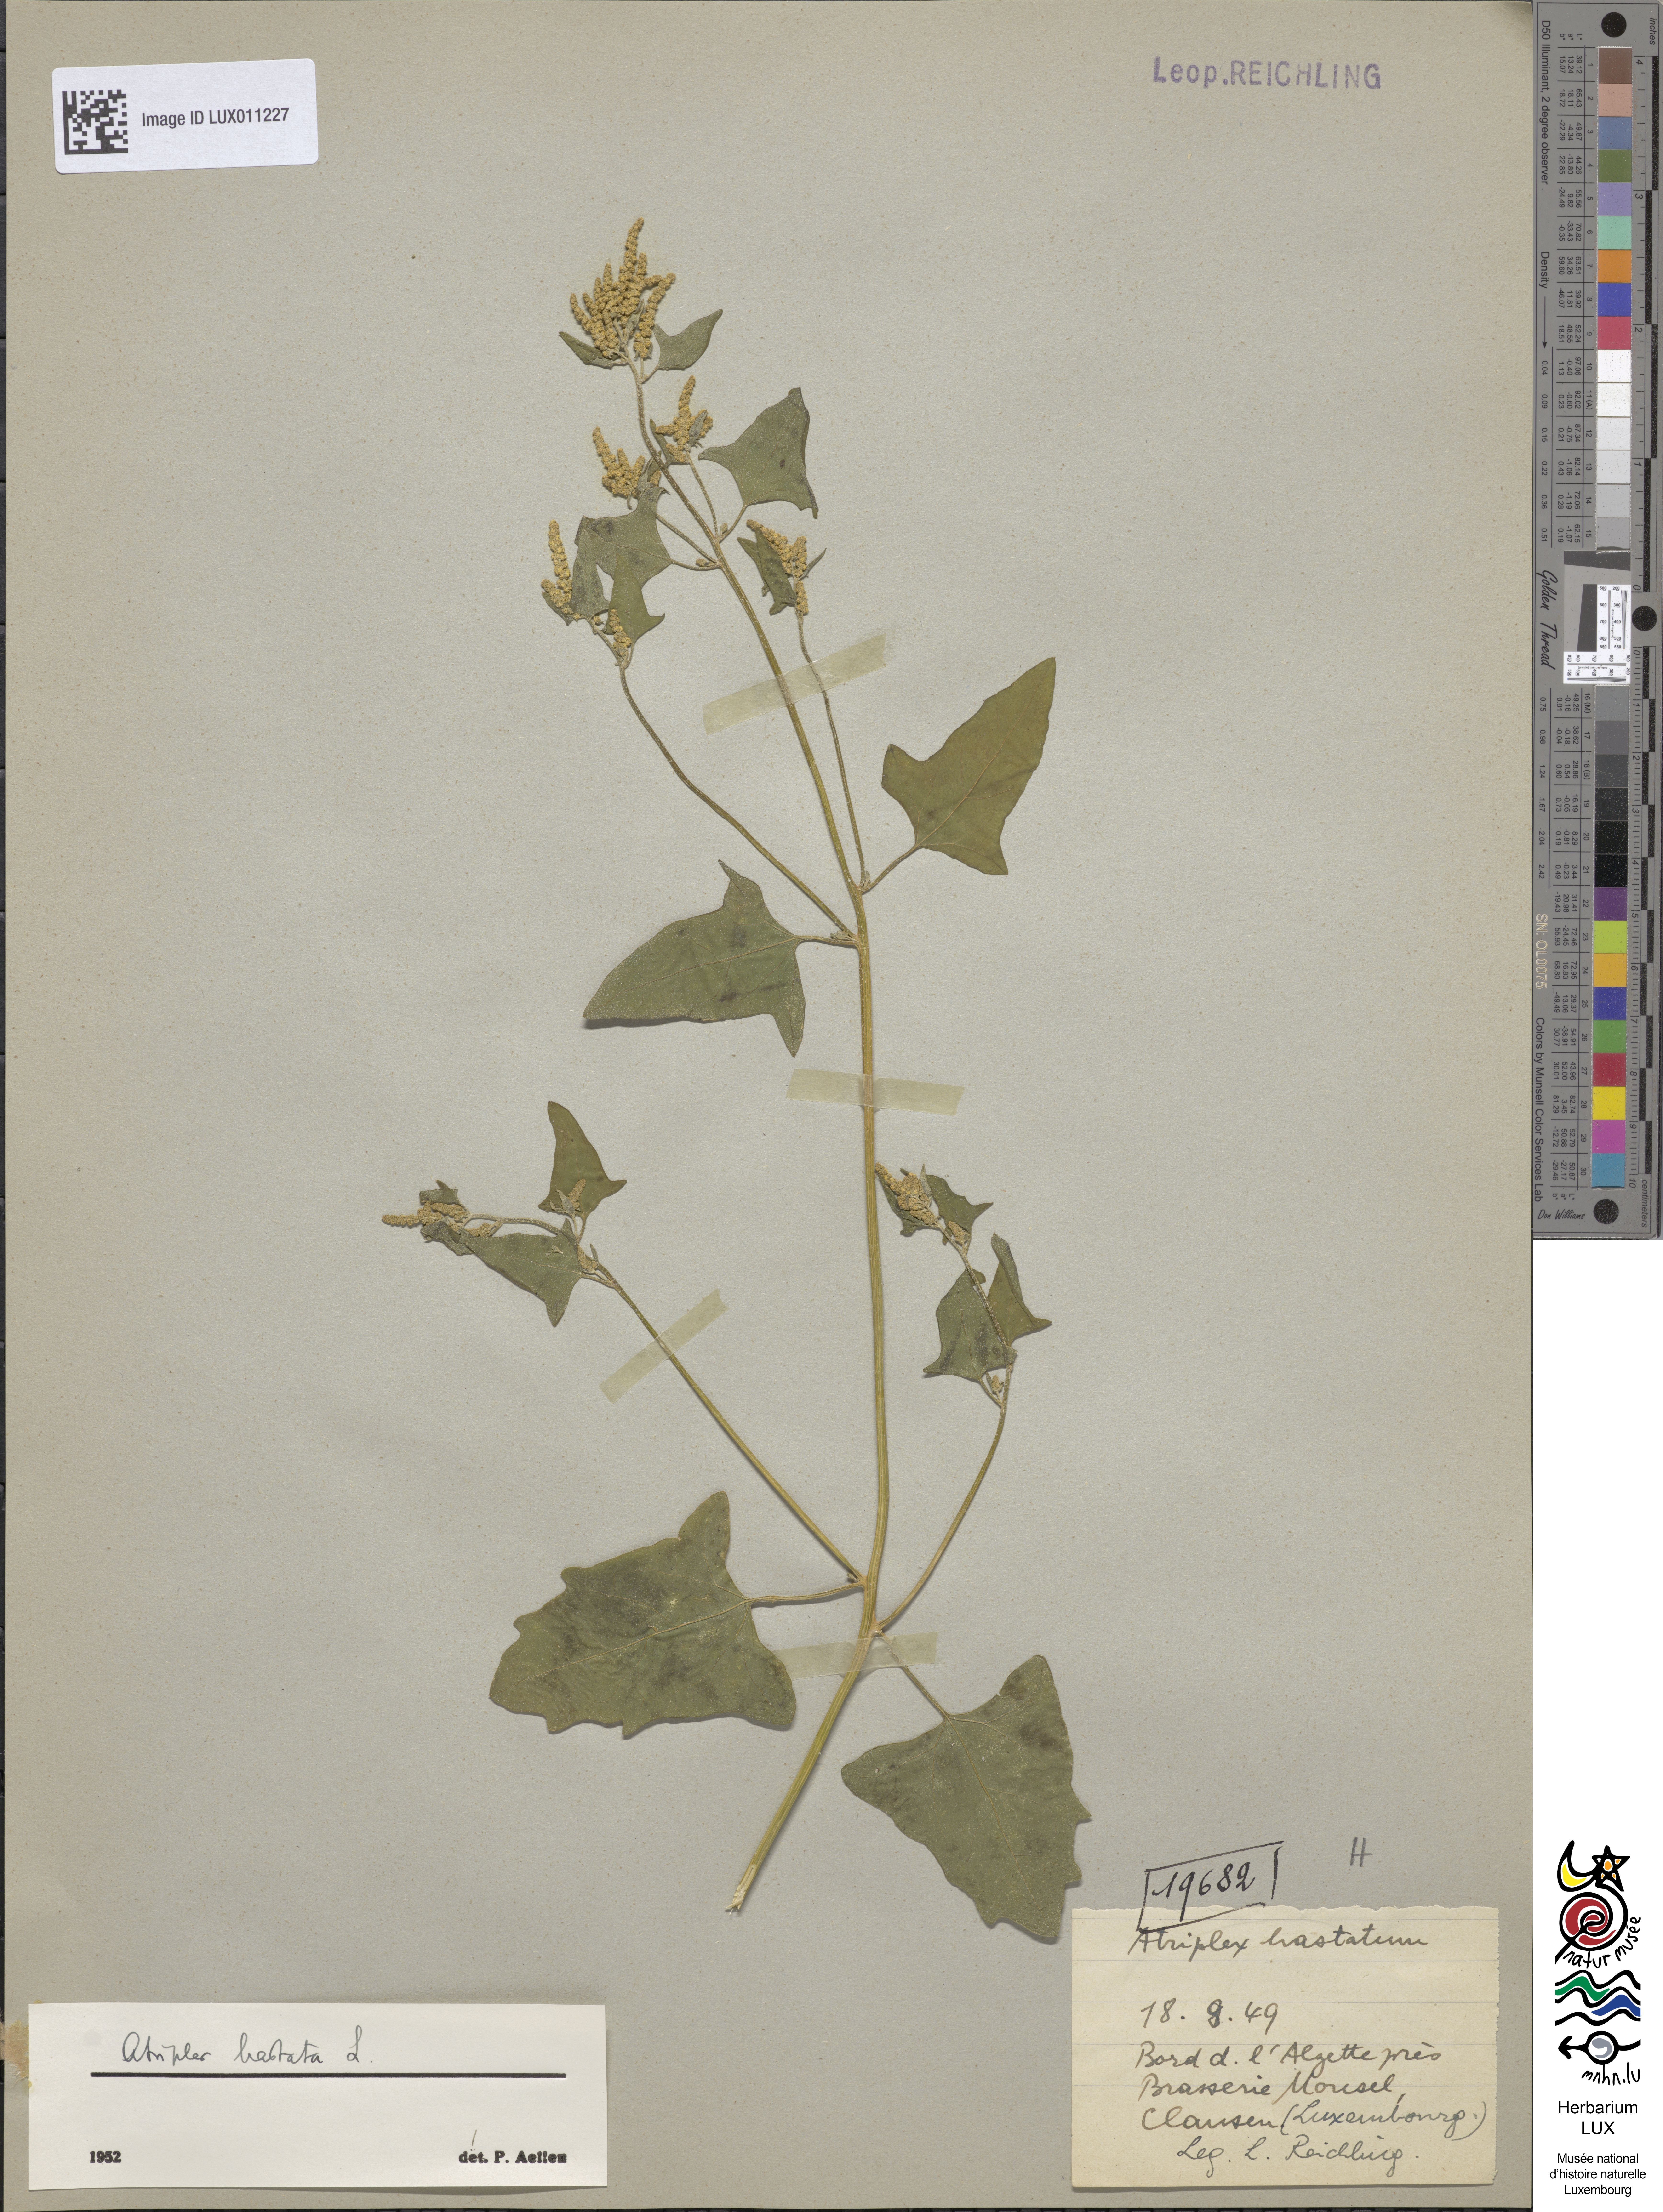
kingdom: Plantae
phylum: Tracheophyta
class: Magnoliopsida
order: Caryophyllales
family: Amaranthaceae
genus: Atriplex
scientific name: Atriplex calotheca
